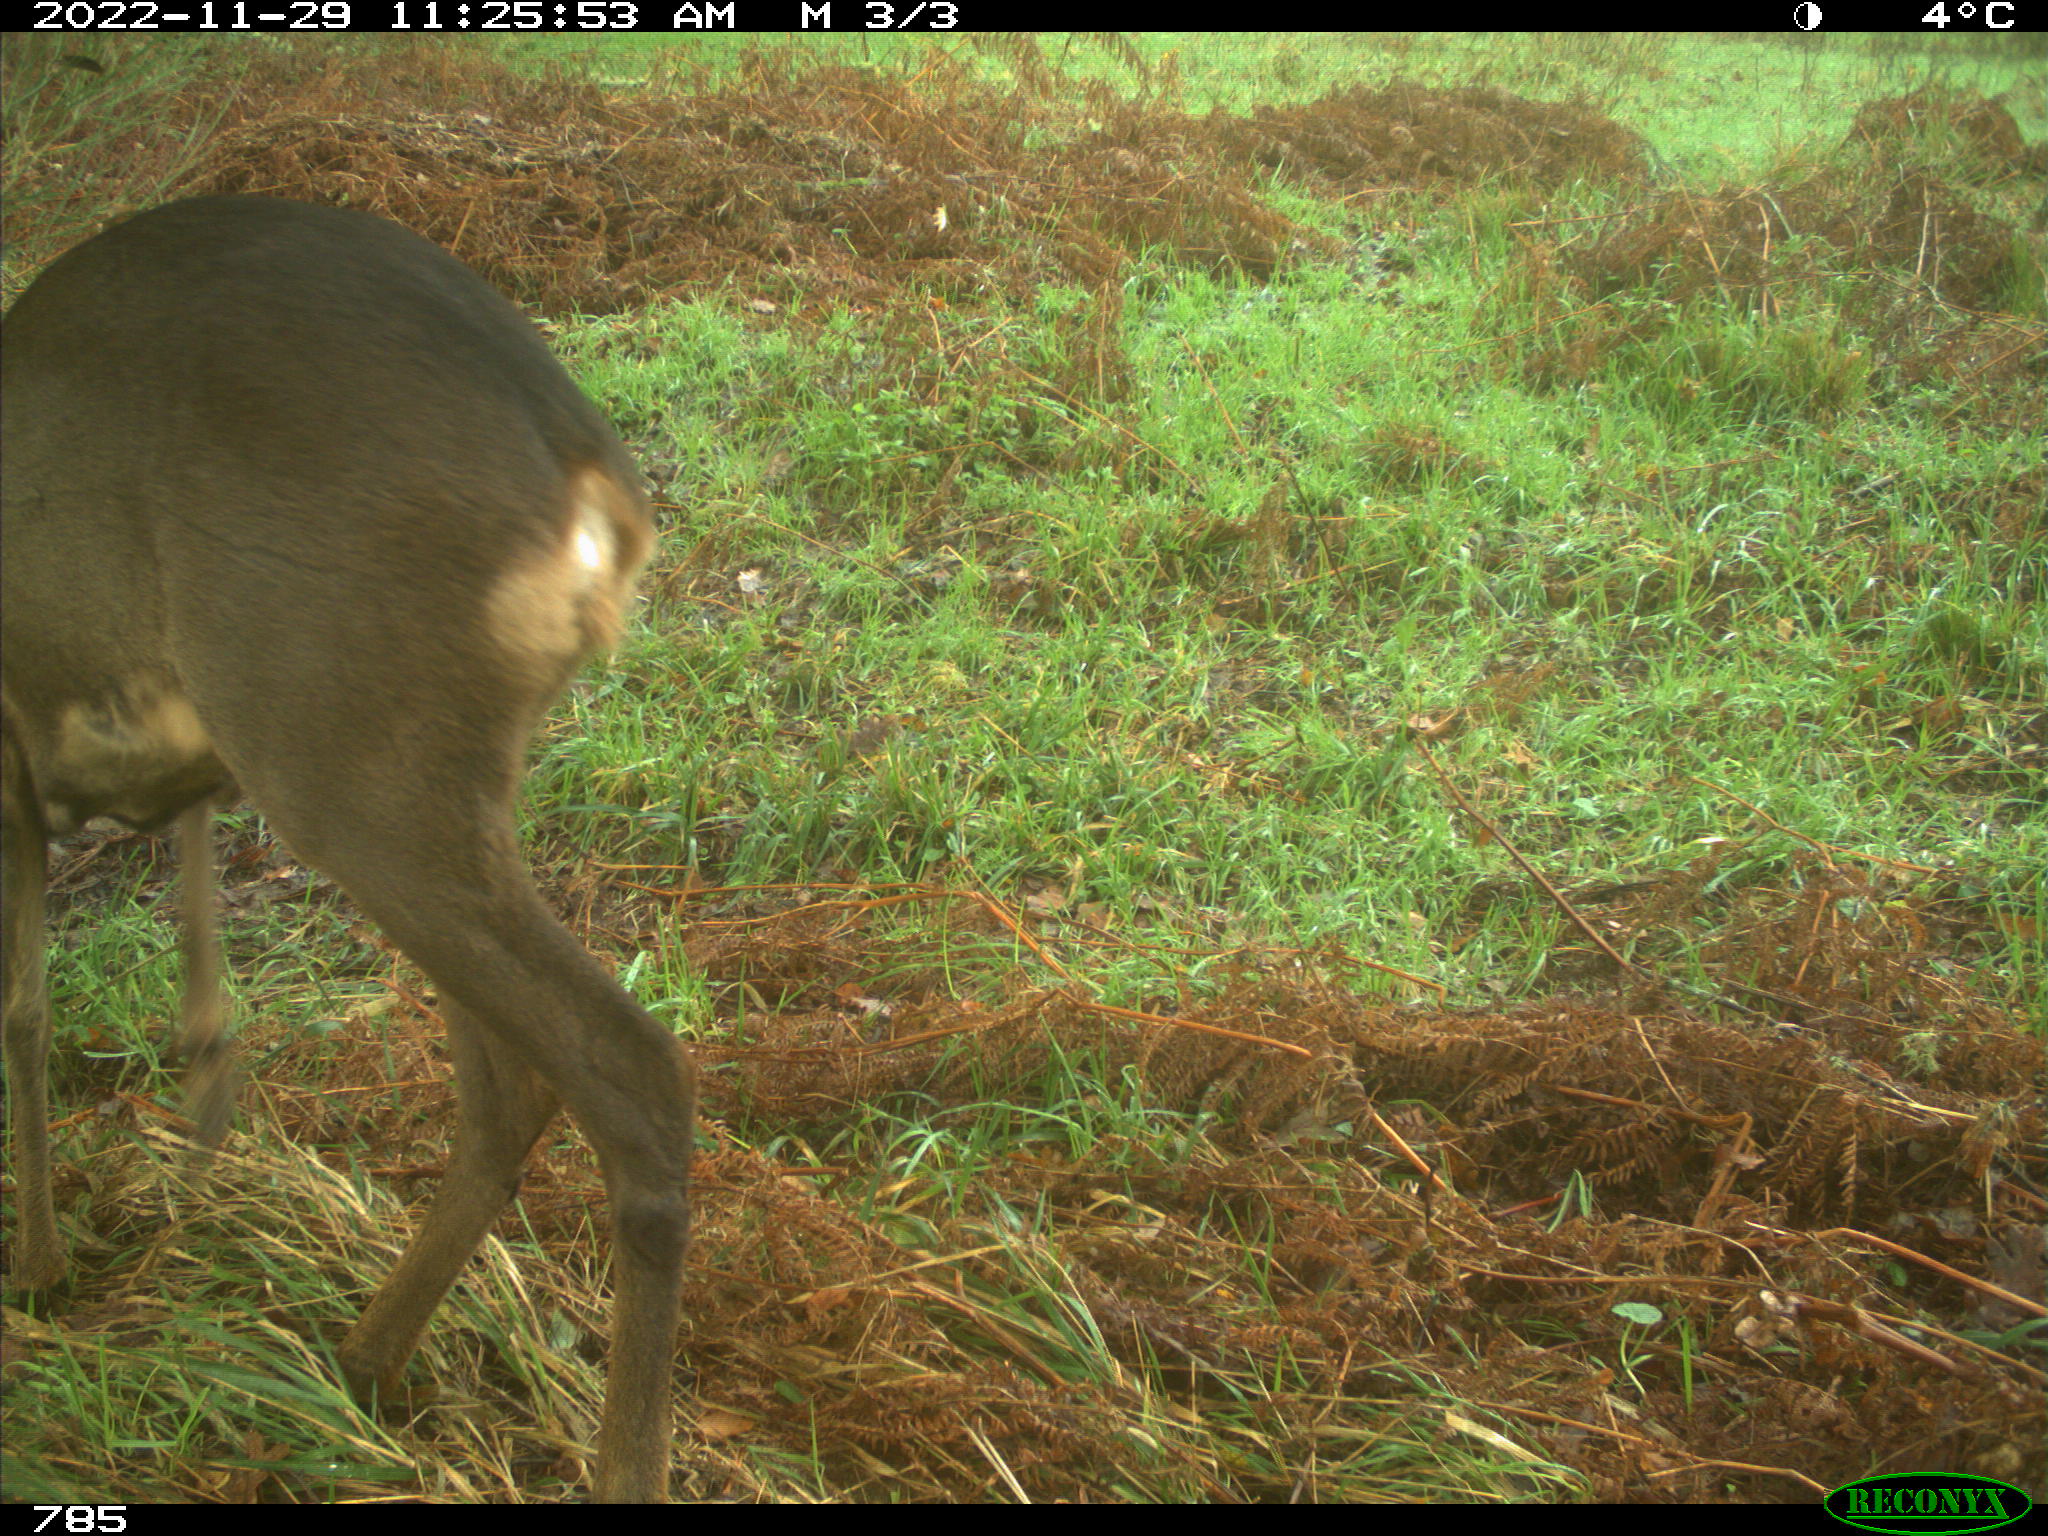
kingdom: Animalia
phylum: Chordata
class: Mammalia
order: Artiodactyla
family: Cervidae
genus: Capreolus
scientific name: Capreolus capreolus
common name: Western roe deer
